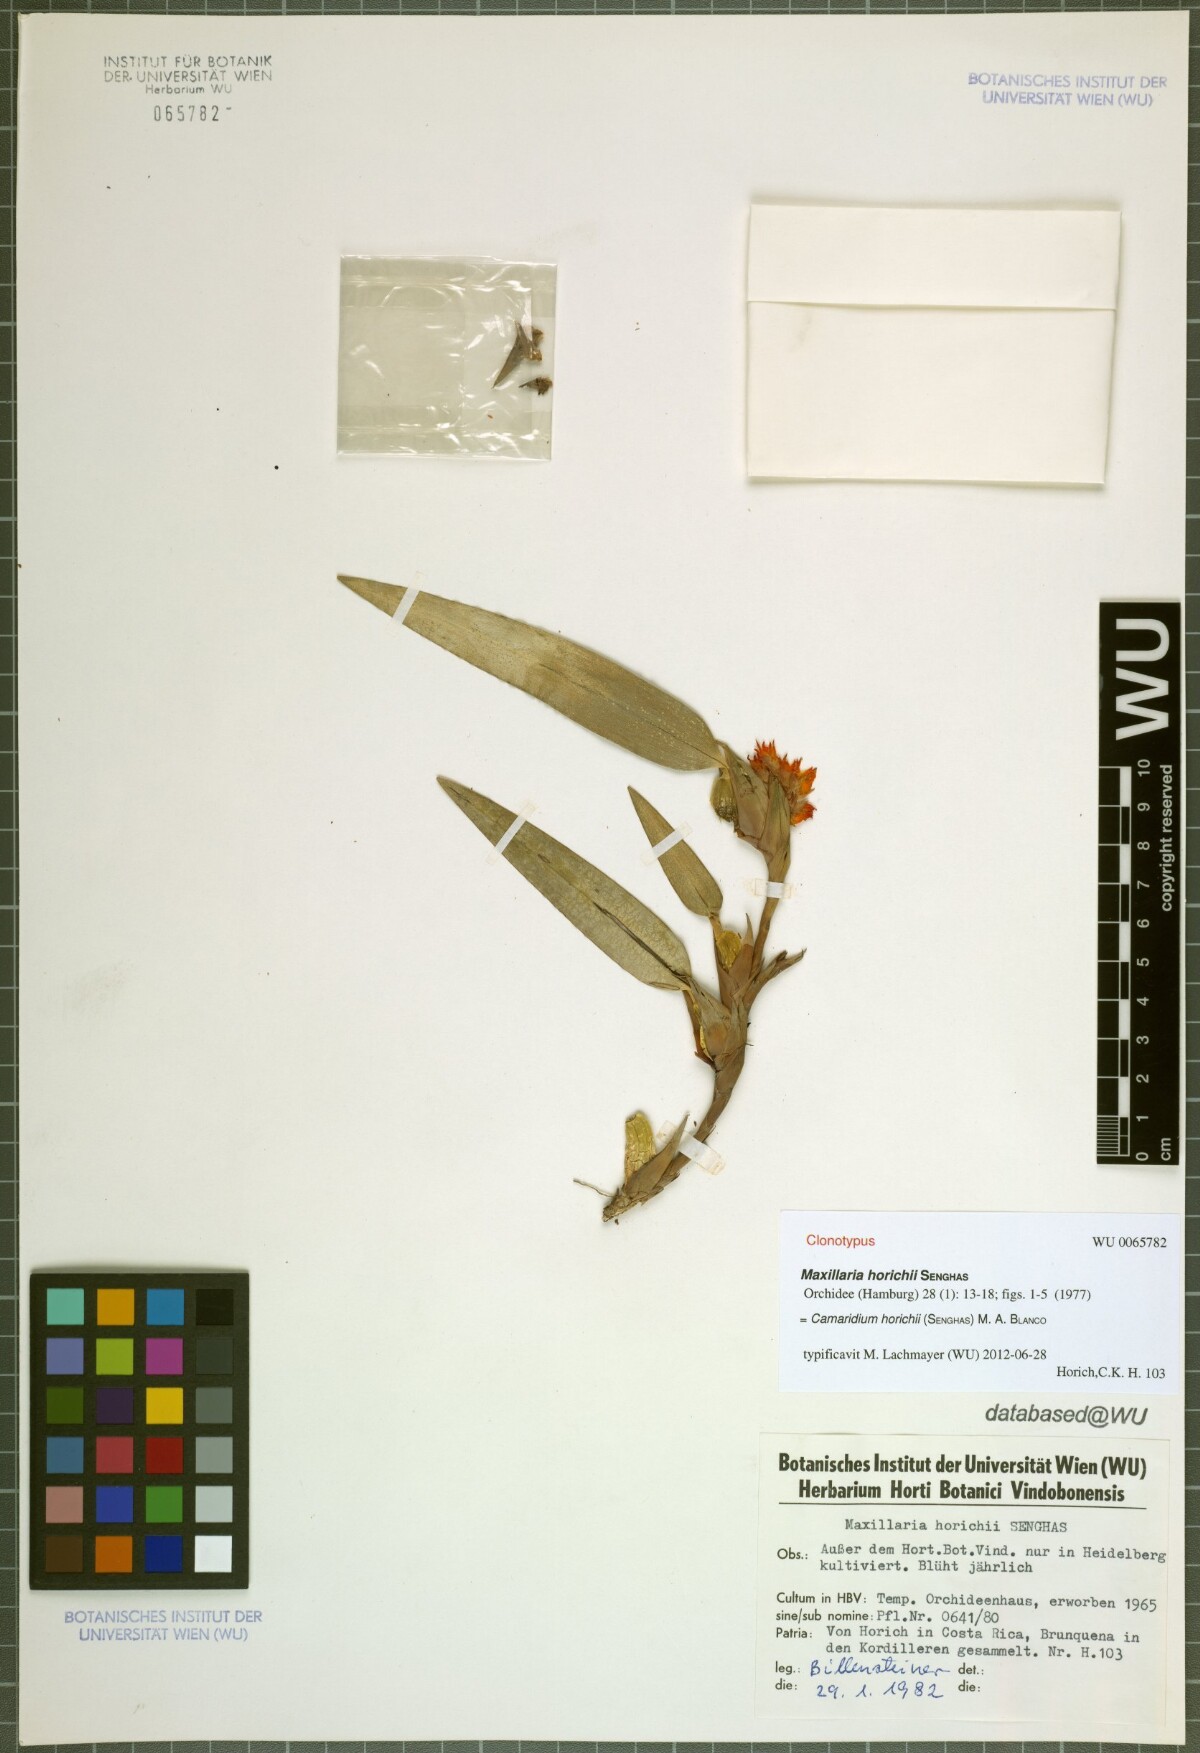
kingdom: Plantae
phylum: Tracheophyta
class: Liliopsida
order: Asparagales
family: Orchidaceae
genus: Maxillaria
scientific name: Maxillaria horichii
